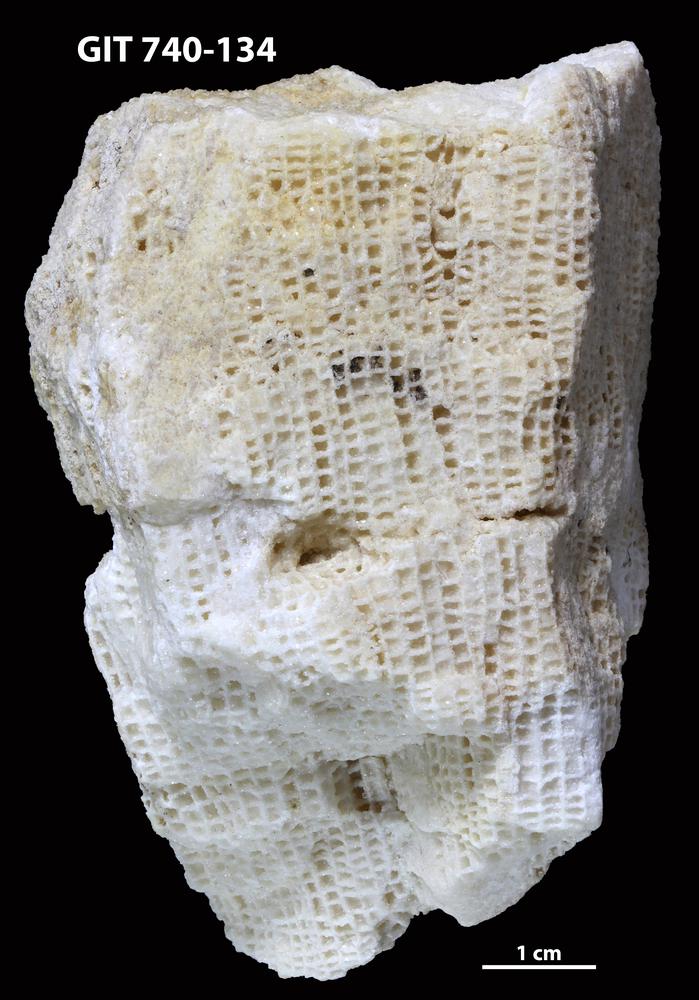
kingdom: Animalia
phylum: Cnidaria
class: Anthozoa
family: Favositidae
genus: Mesofavosites
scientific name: Mesofavosites dualis
